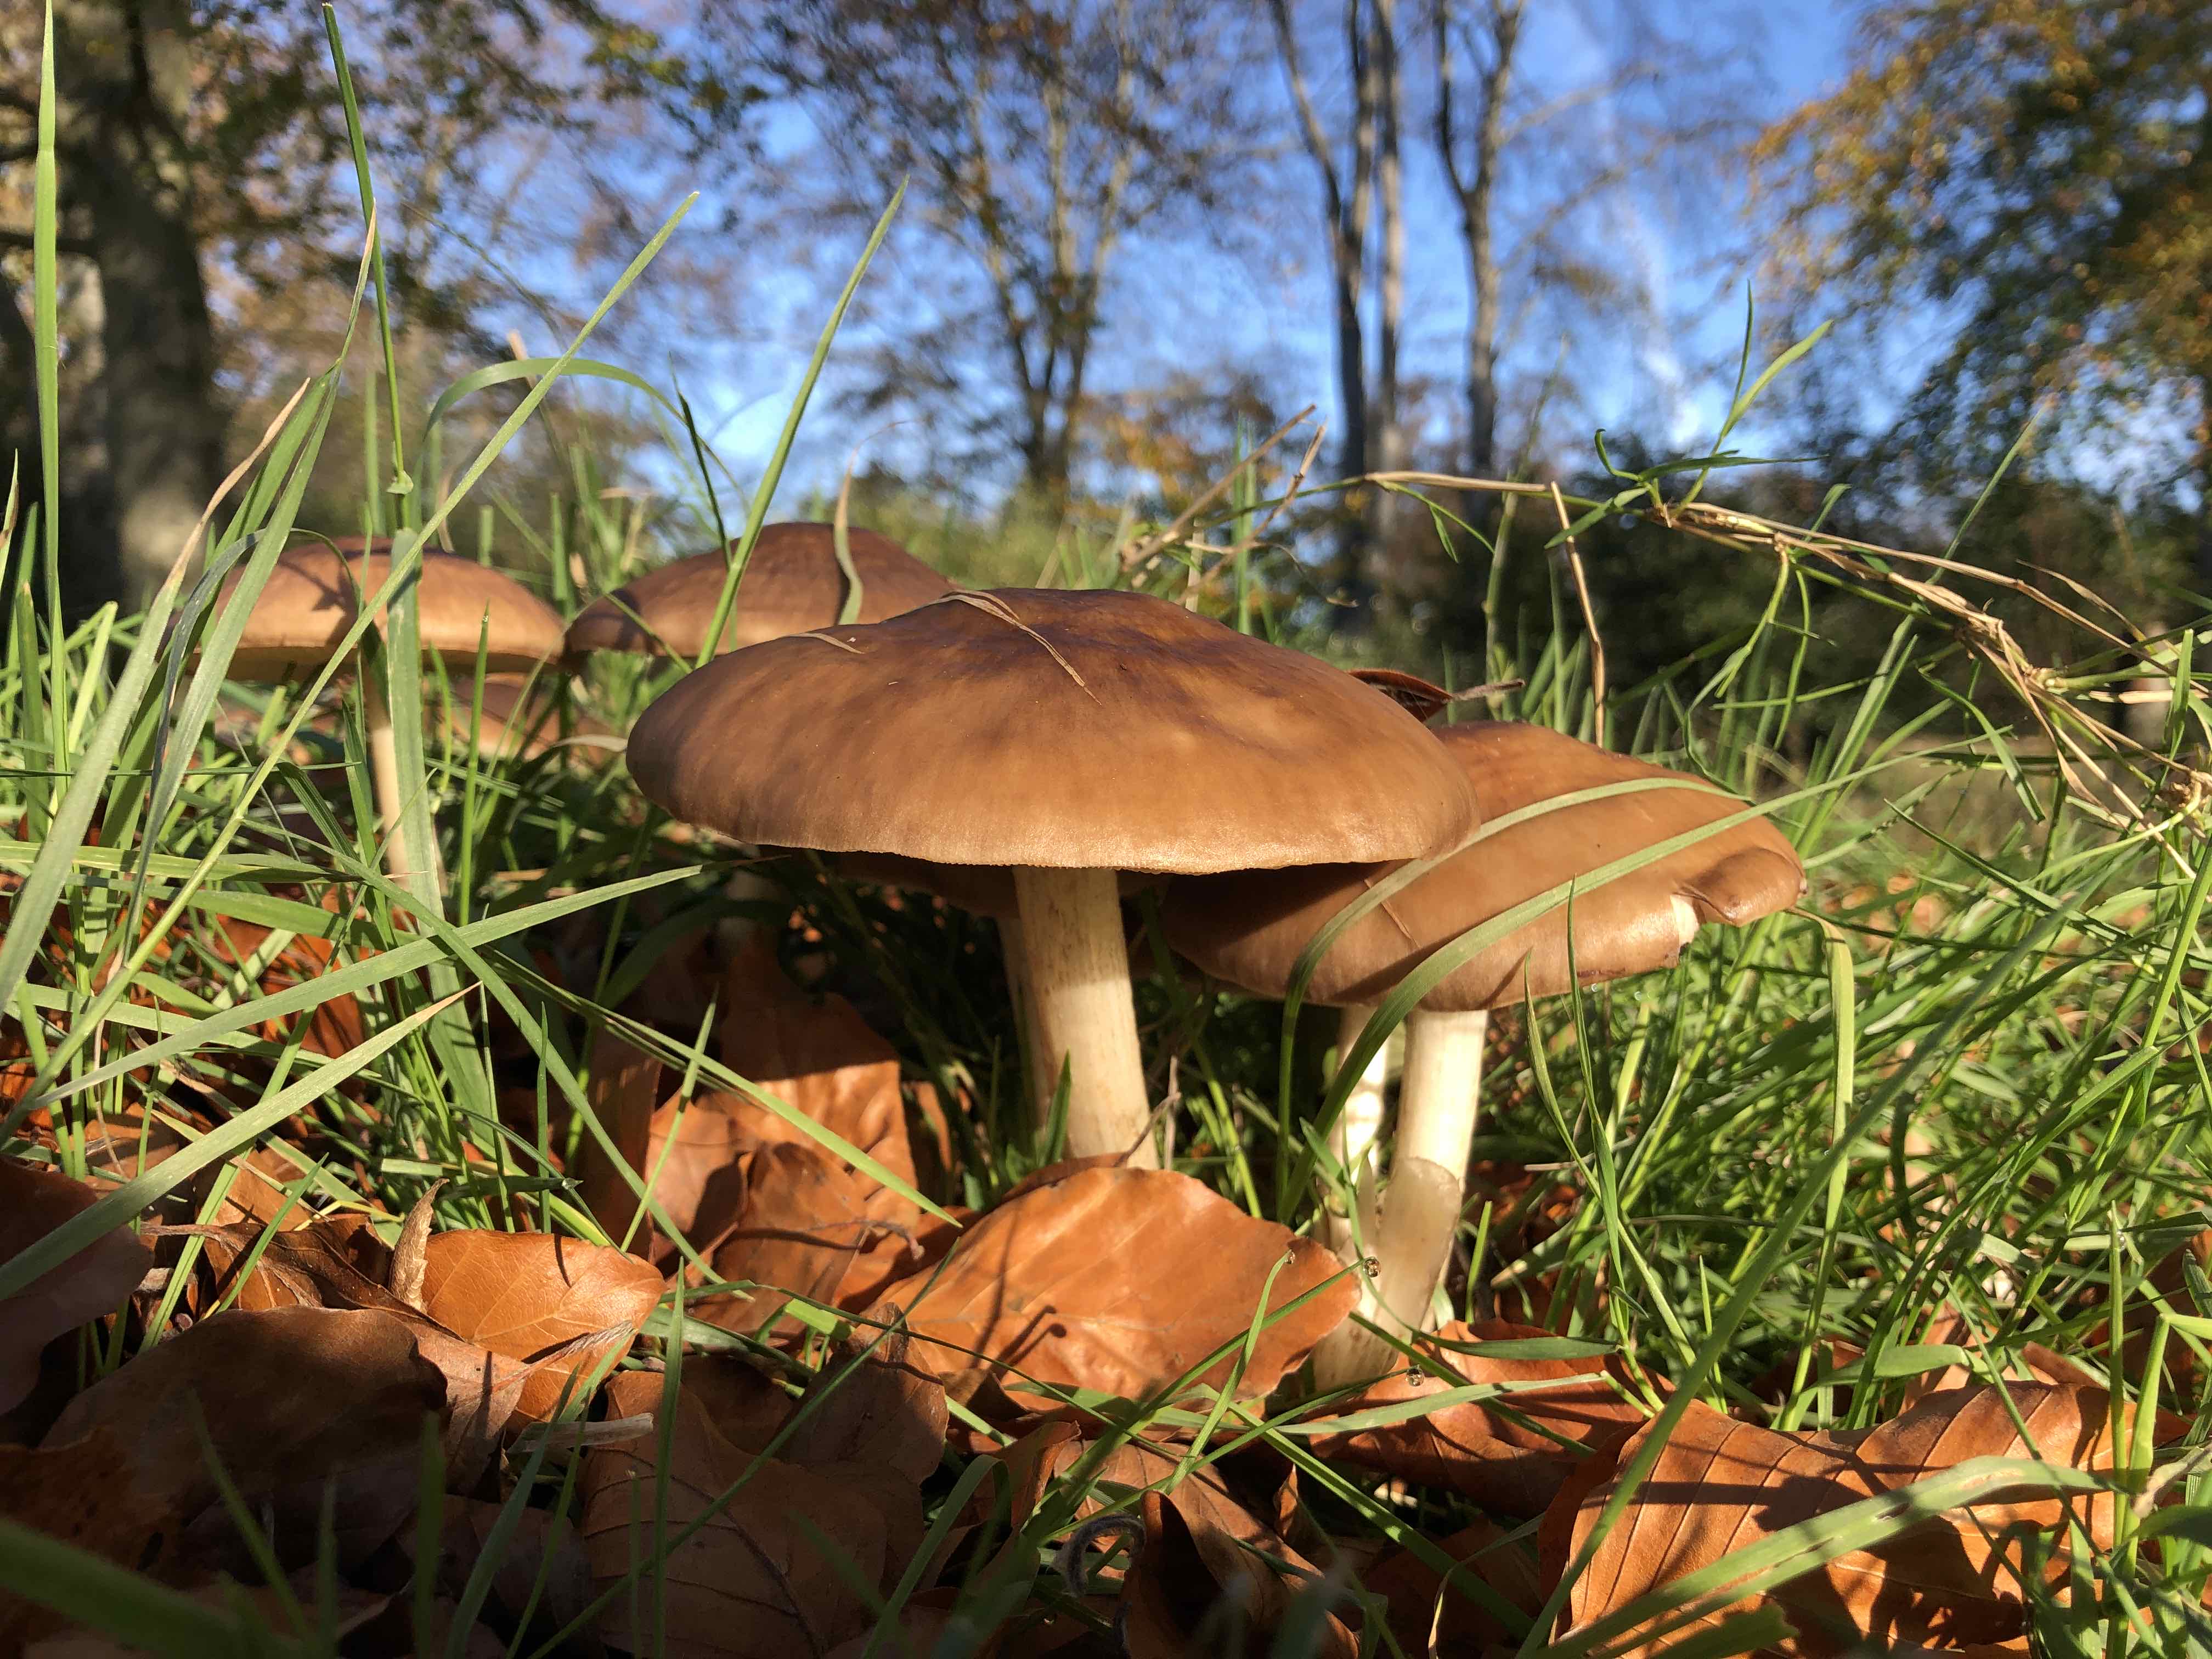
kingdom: Fungi
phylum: Basidiomycota
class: Agaricomycetes
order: Agaricales
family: Pluteaceae
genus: Pluteus
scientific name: Pluteus cervinus
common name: sodfarvet skærmhat
